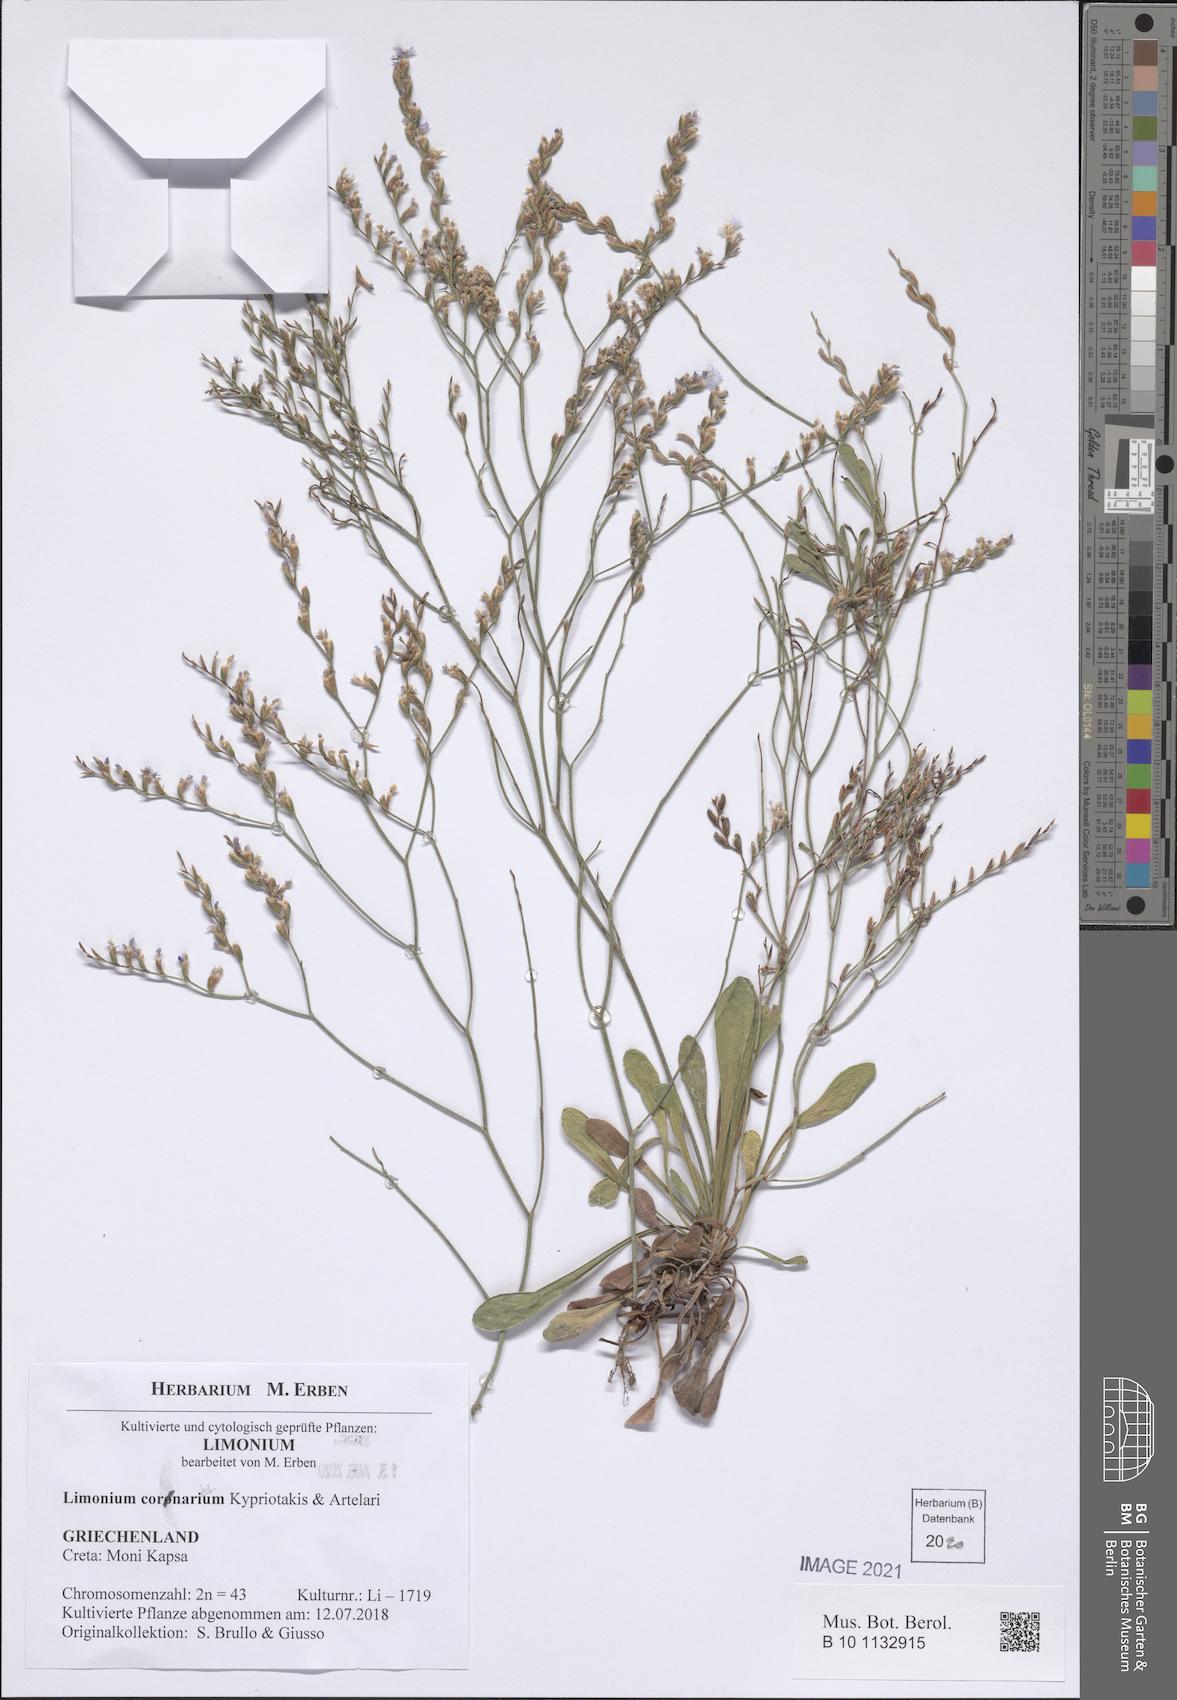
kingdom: Plantae
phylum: Tracheophyta
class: Magnoliopsida
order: Caryophyllales
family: Plumbaginaceae
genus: Limonium
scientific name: Limonium cornarianum
